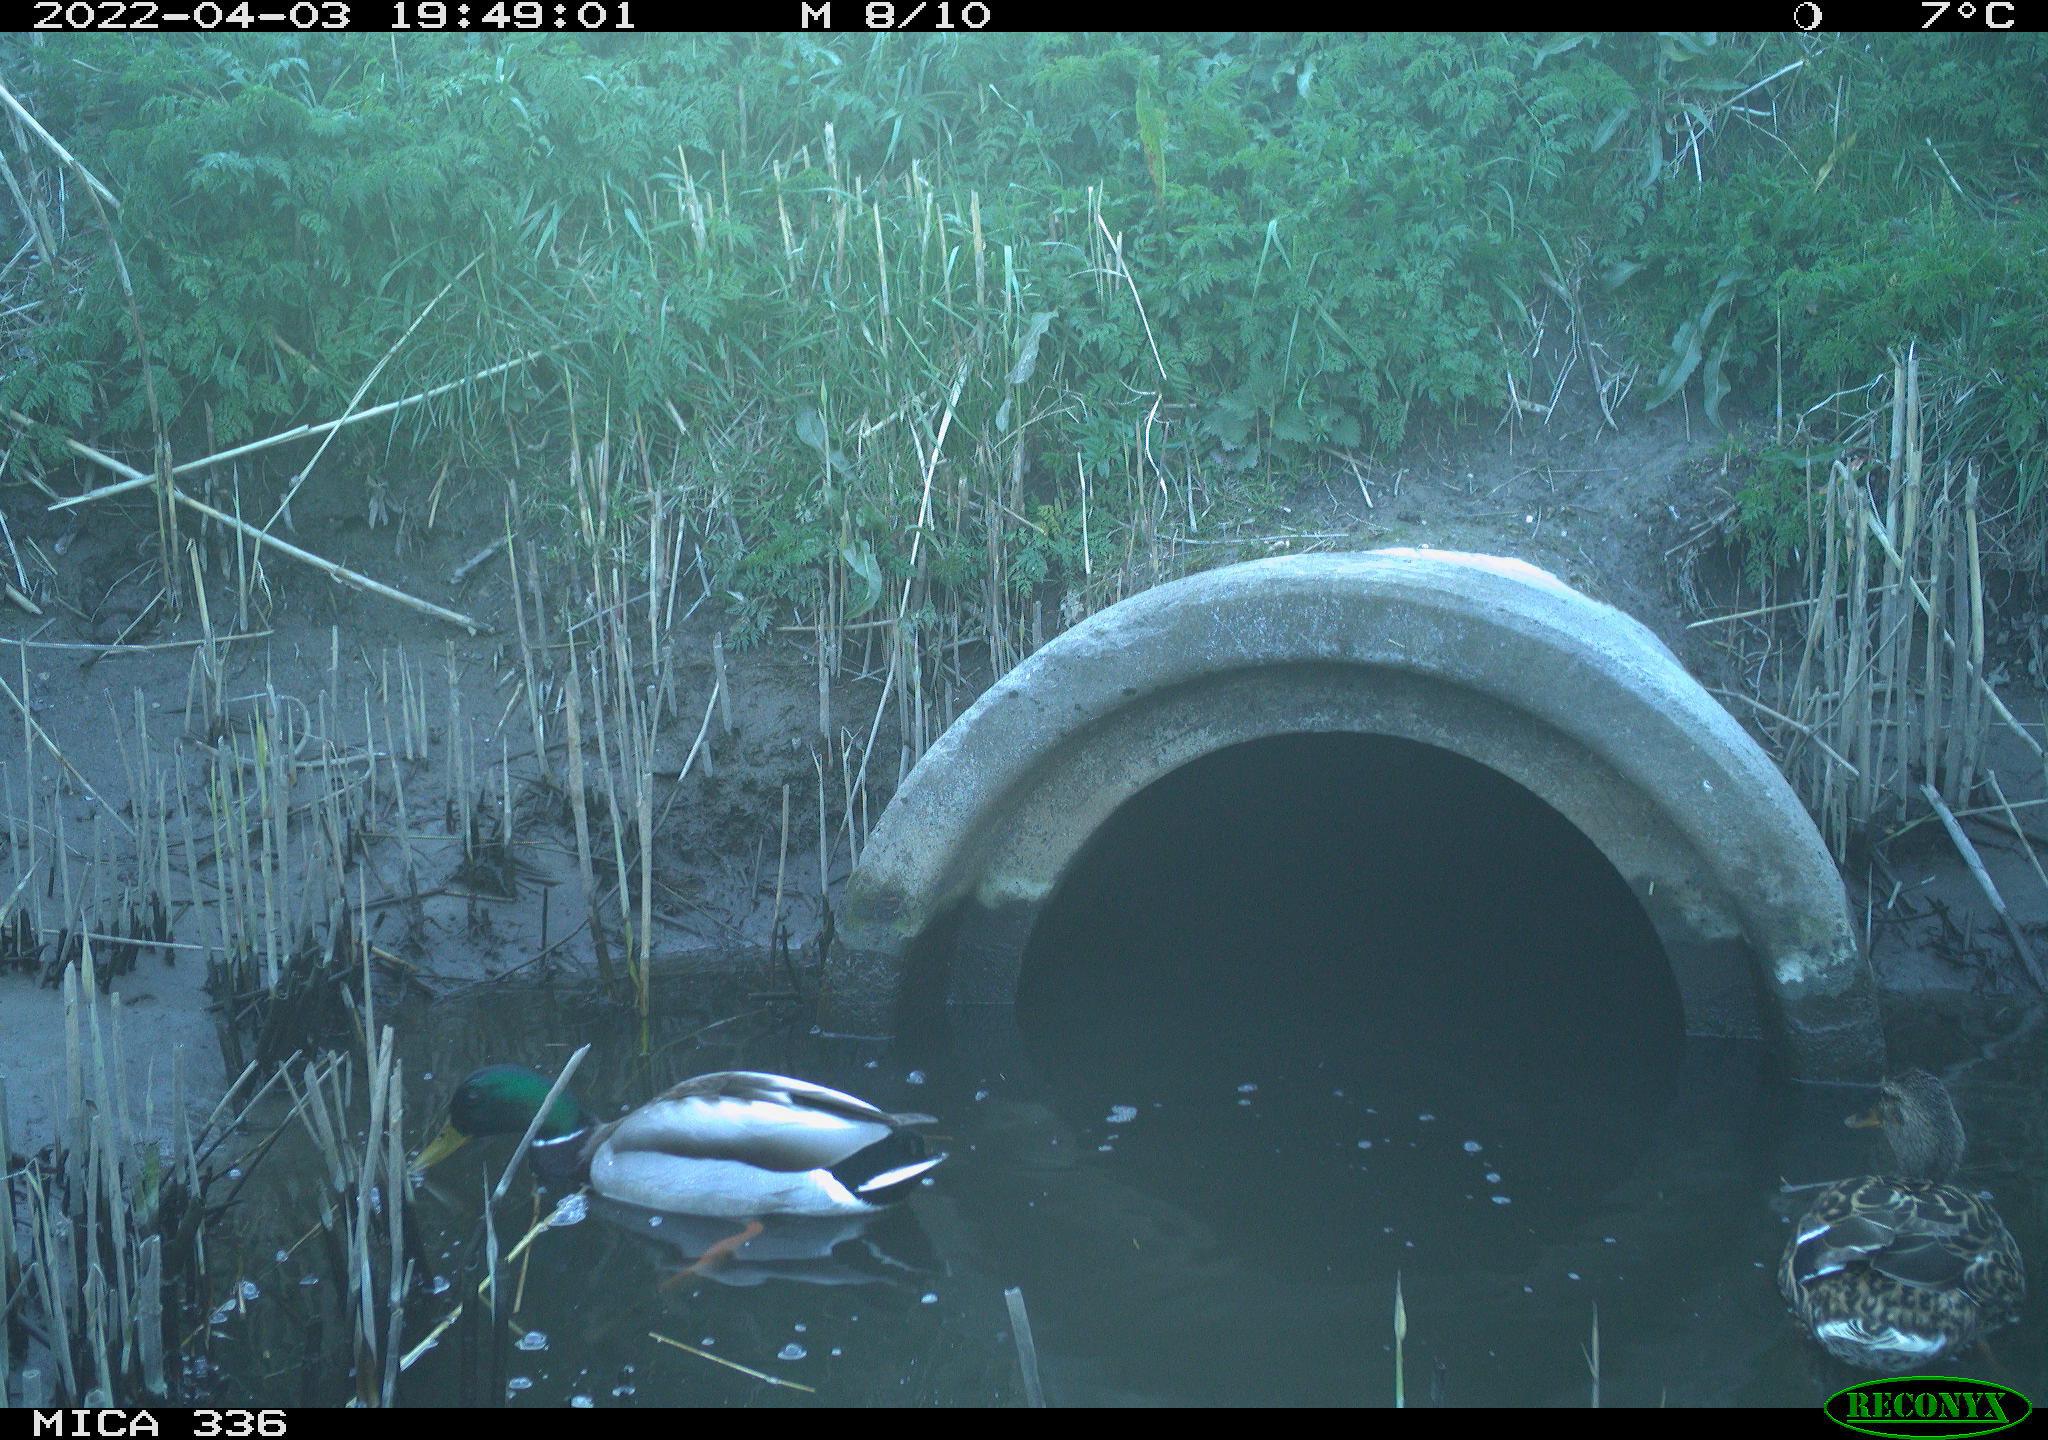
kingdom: Animalia
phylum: Chordata
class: Aves
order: Anseriformes
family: Anatidae
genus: Anas
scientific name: Anas platyrhynchos
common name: Mallard
